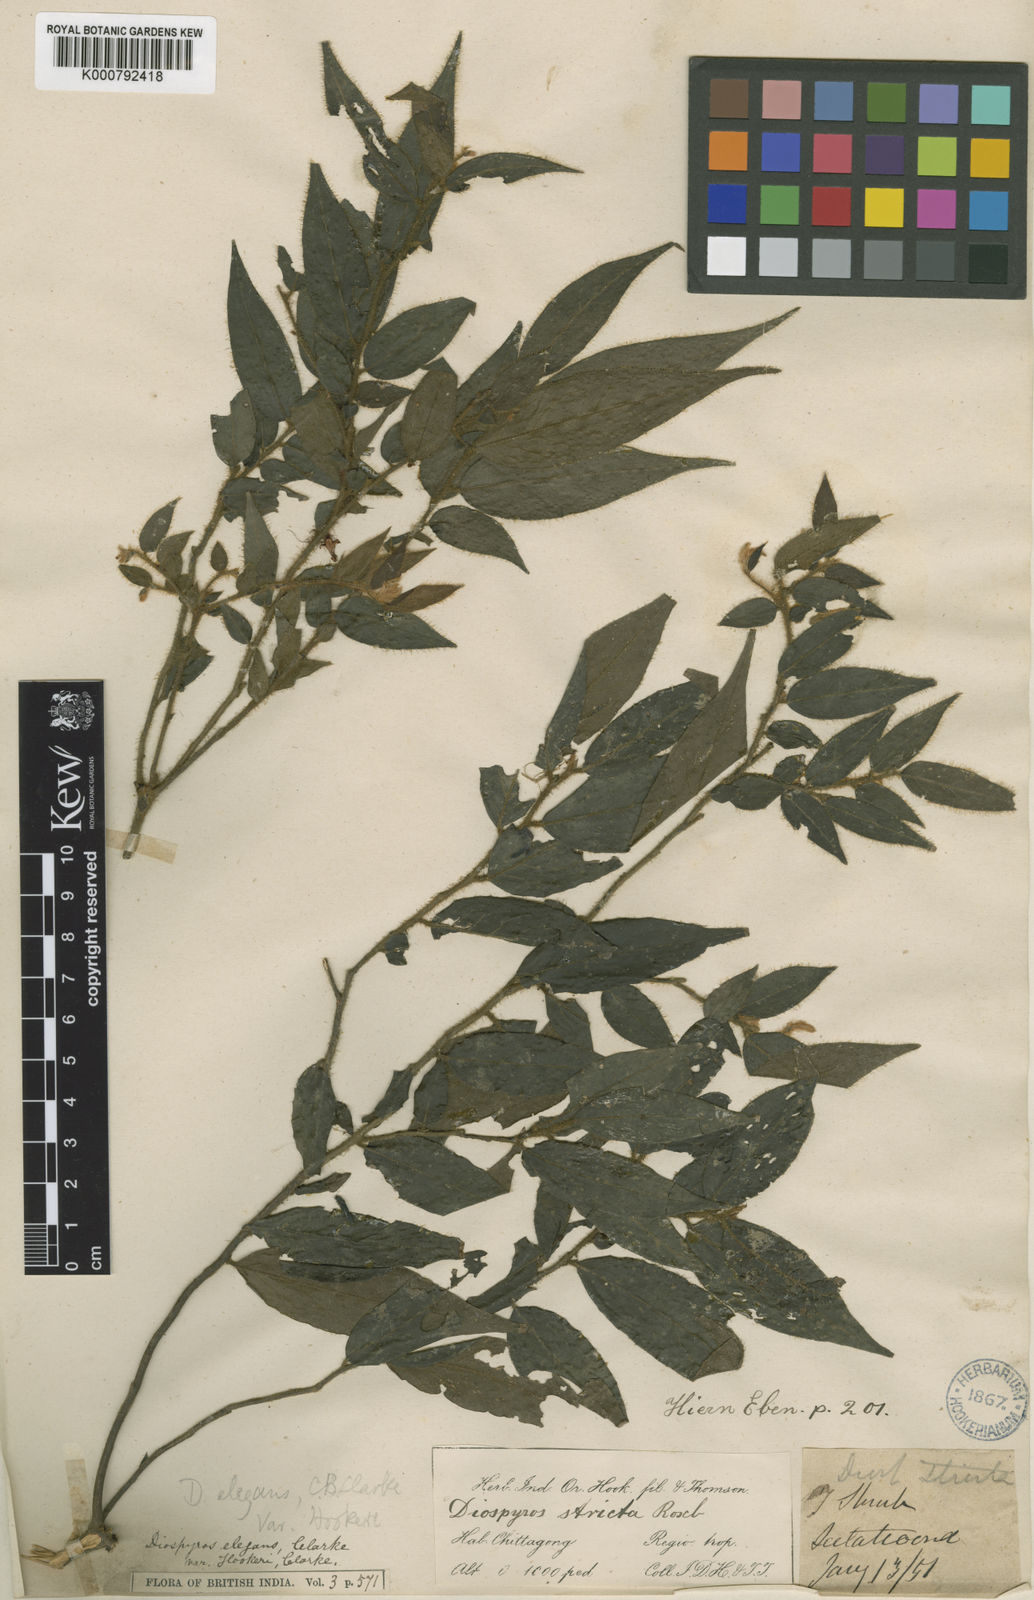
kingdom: Plantae
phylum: Tracheophyta
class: Magnoliopsida
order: Ericales
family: Ebenaceae
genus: Diospyros
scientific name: Diospyros
